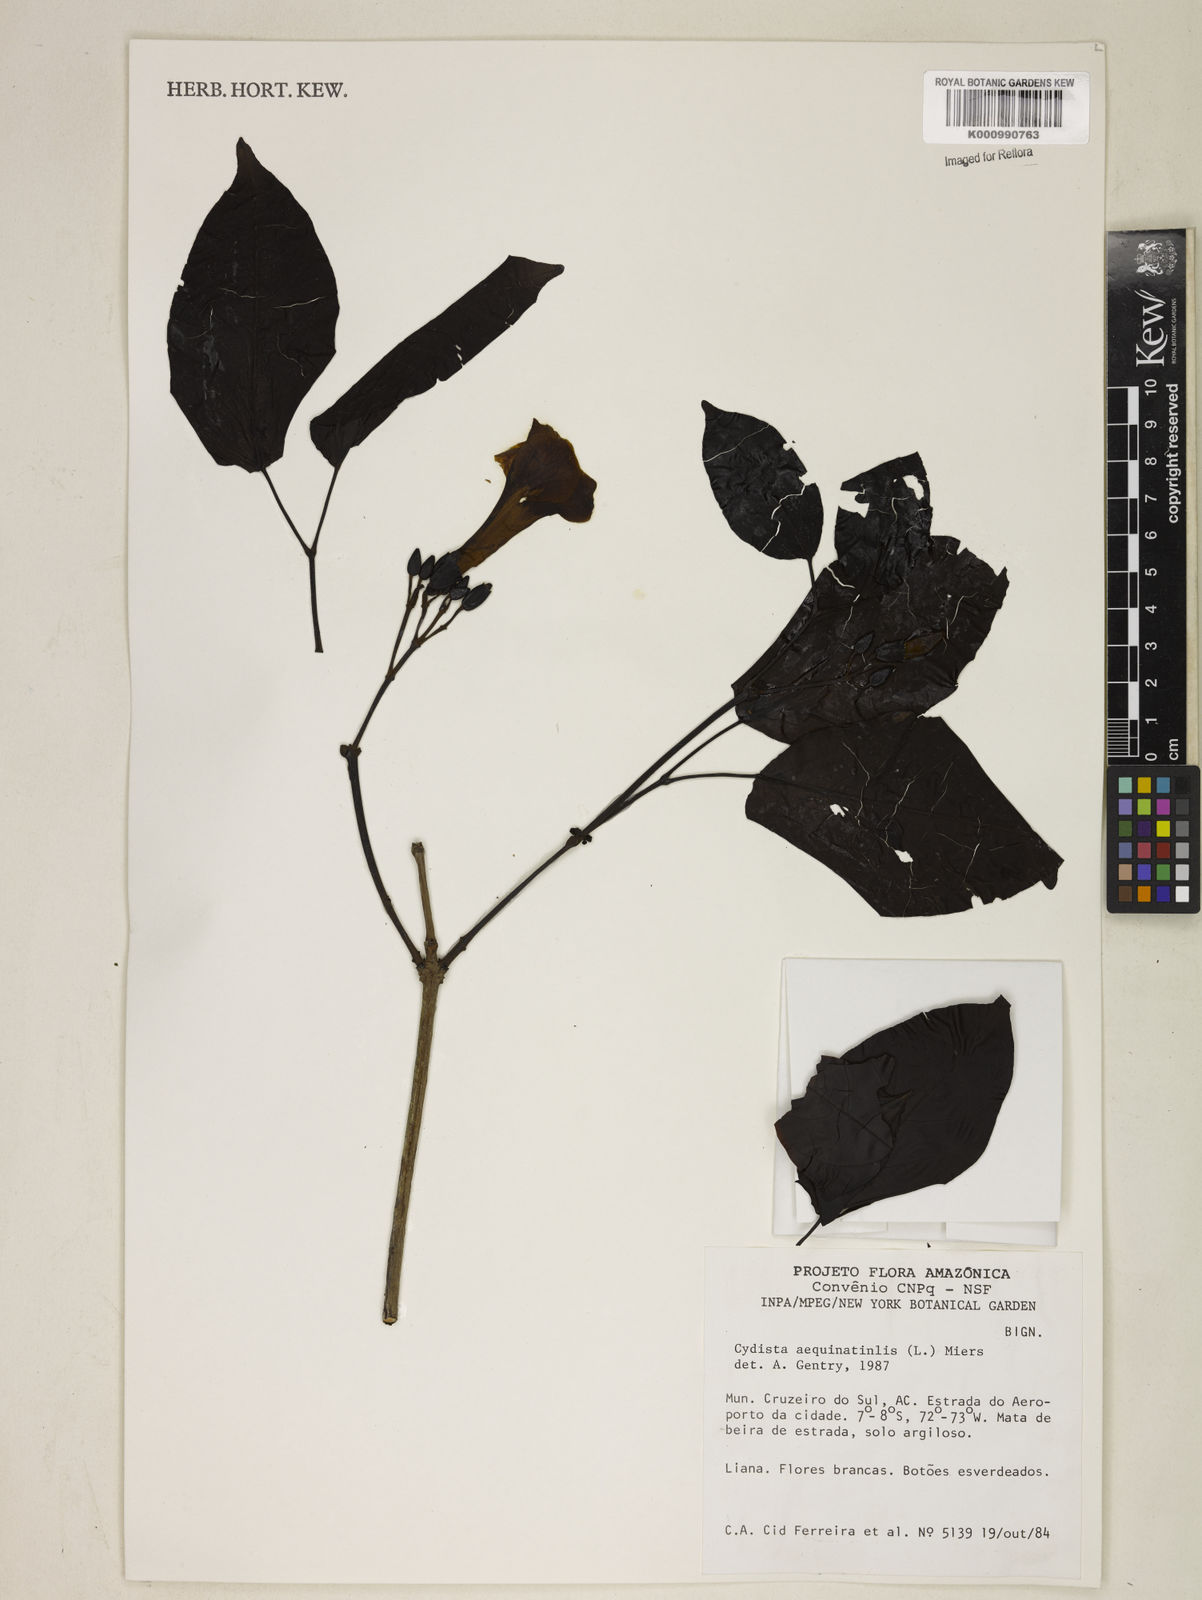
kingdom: Plantae
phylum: Tracheophyta
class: Magnoliopsida
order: Lamiales
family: Bignoniaceae
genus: Bignonia
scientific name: Bignonia aequinoctialis
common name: Garlicvine
